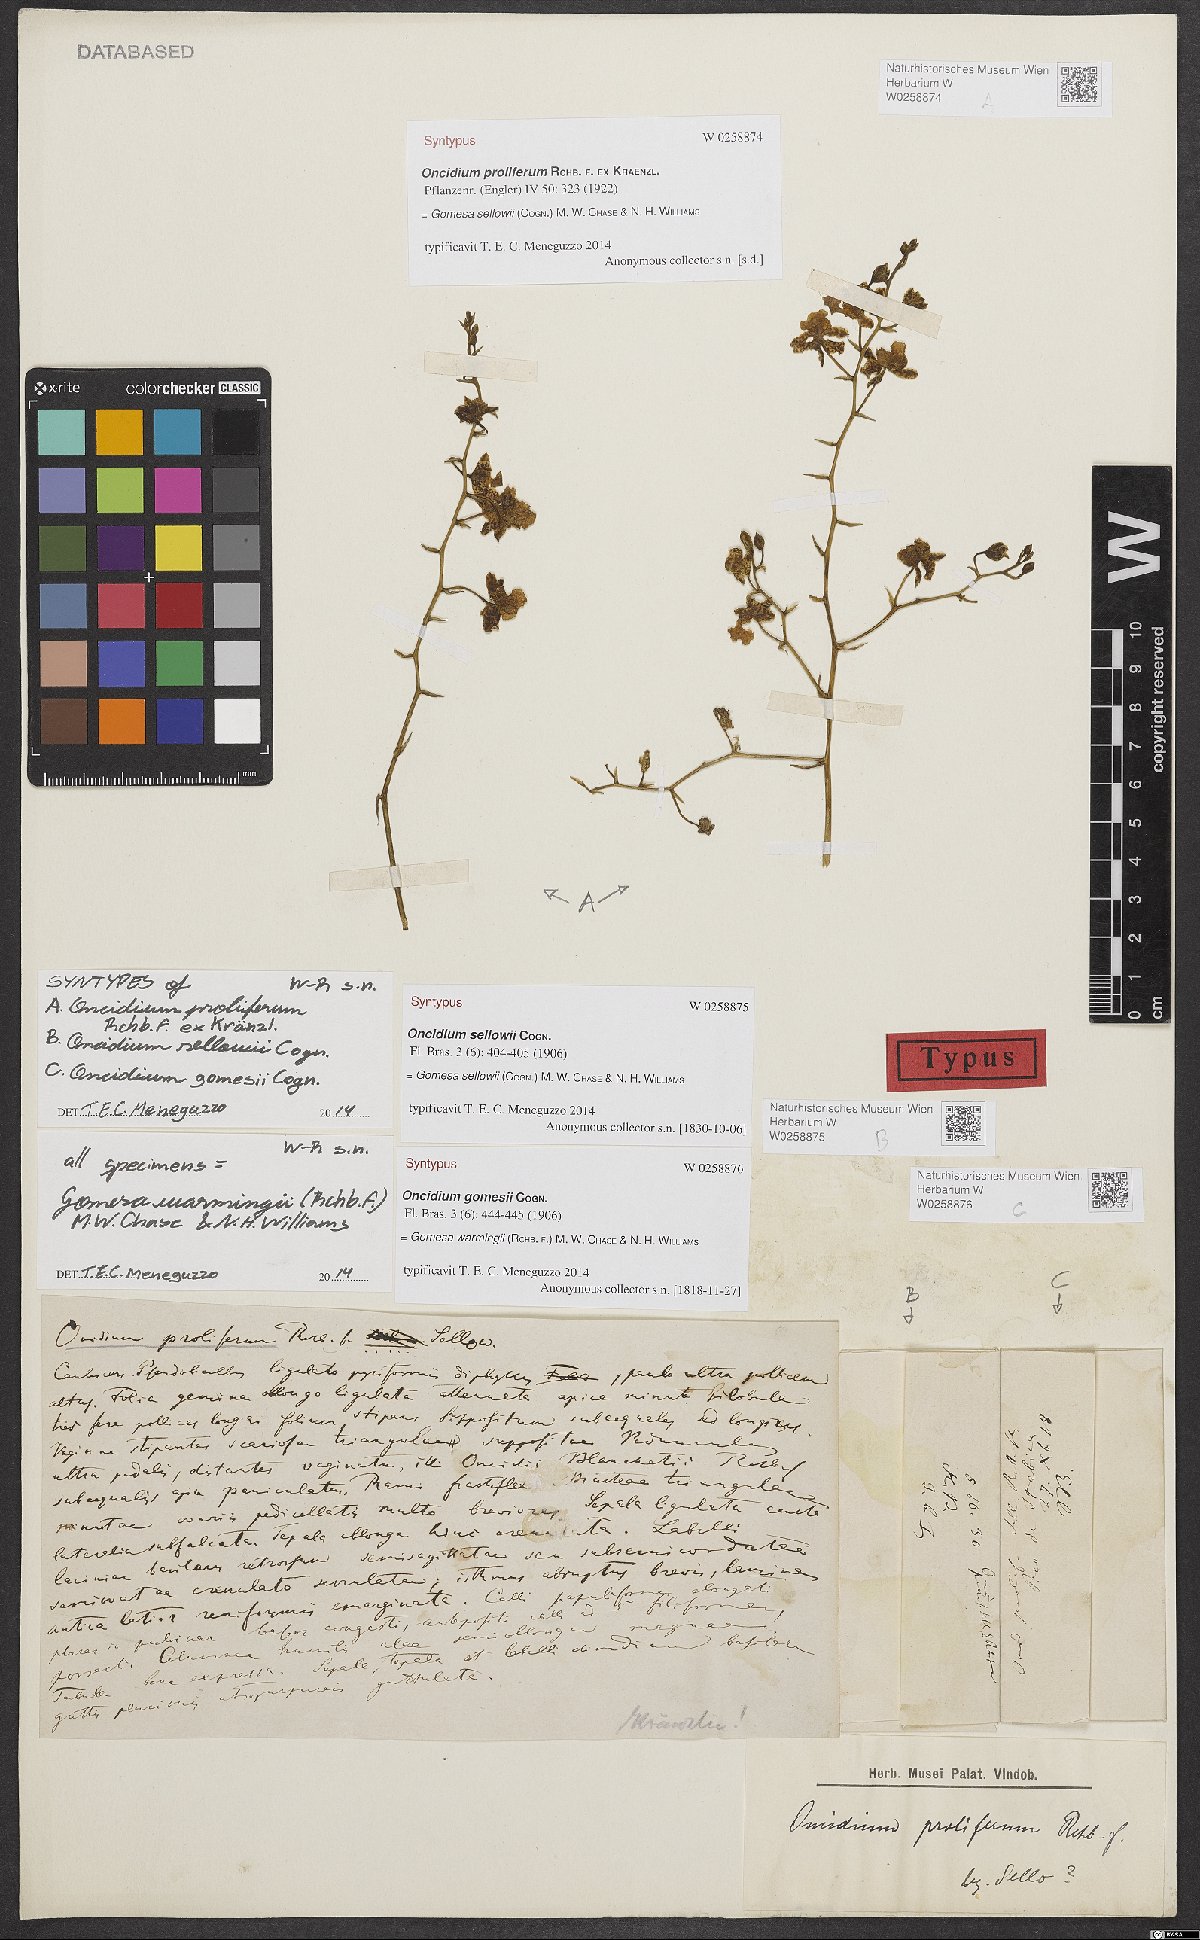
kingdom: Plantae
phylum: Tracheophyta
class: Liliopsida
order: Asparagales
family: Orchidaceae
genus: Gomesa
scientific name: Gomesa sellowii
